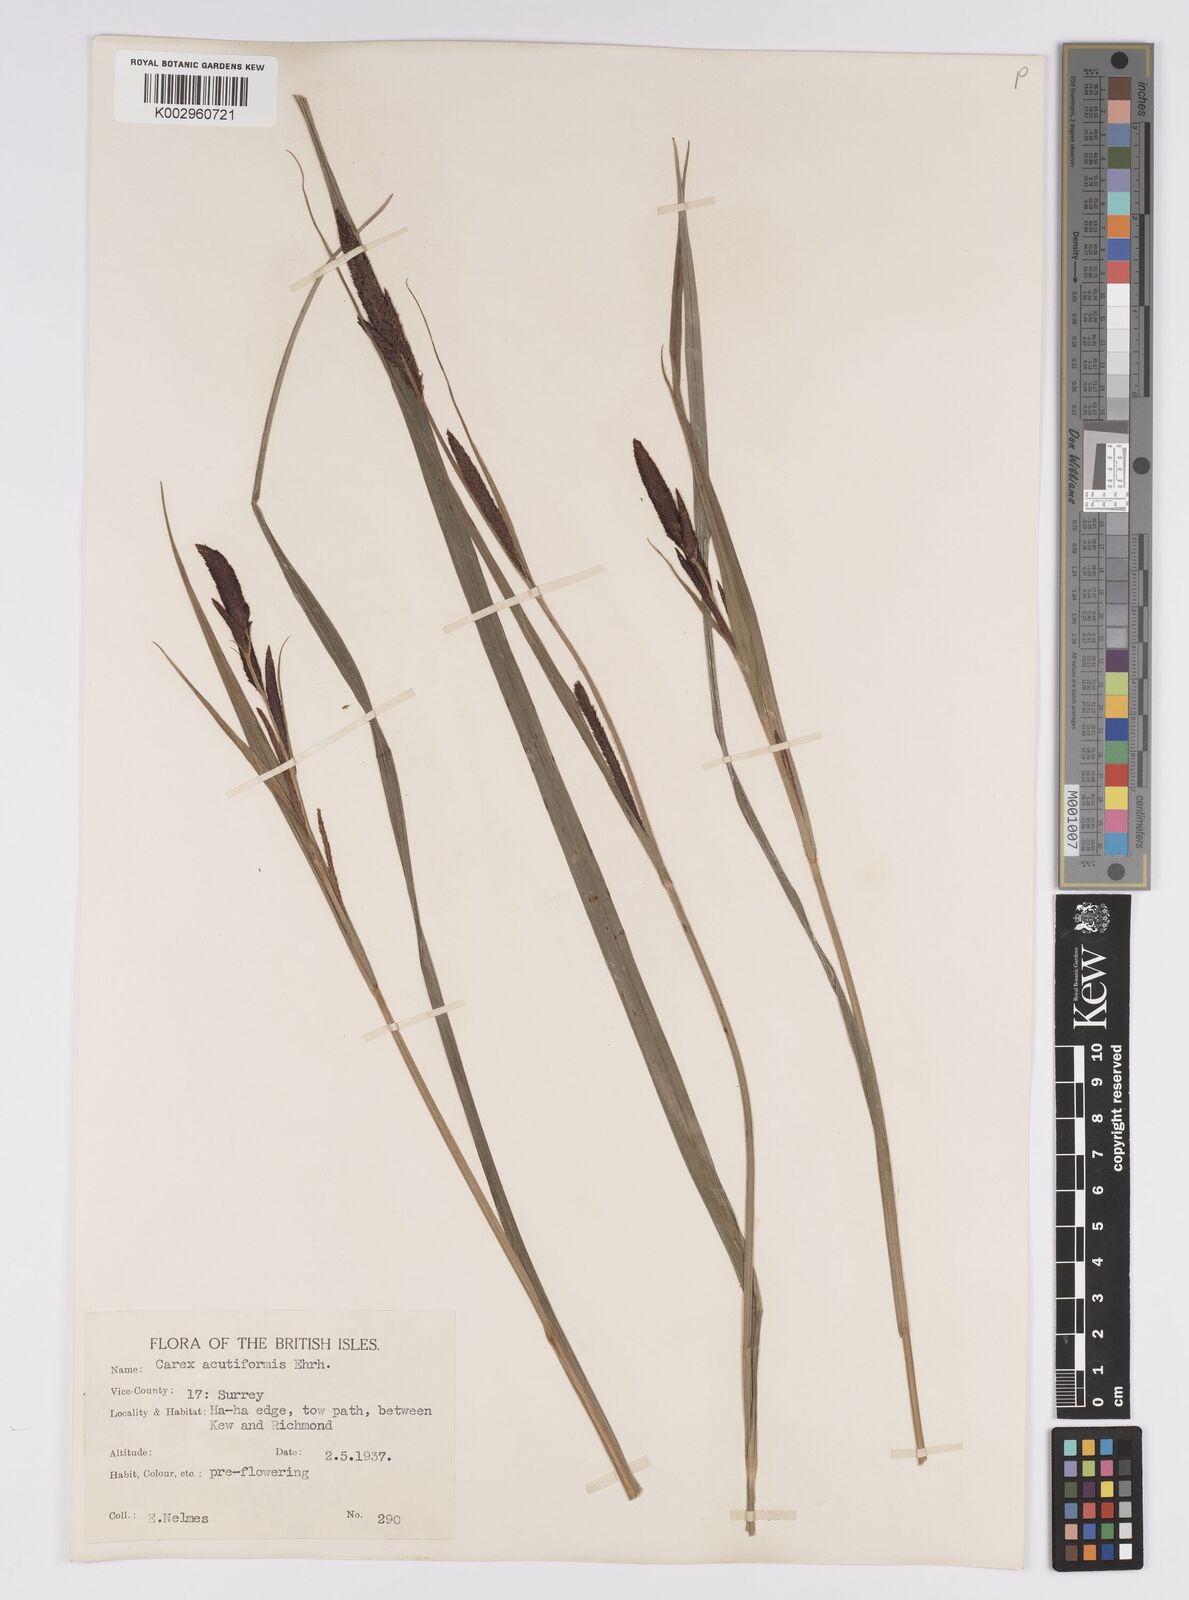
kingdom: Plantae
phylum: Tracheophyta
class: Liliopsida
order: Poales
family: Cyperaceae
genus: Carex
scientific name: Carex acutiformis
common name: Lesser pond-sedge
